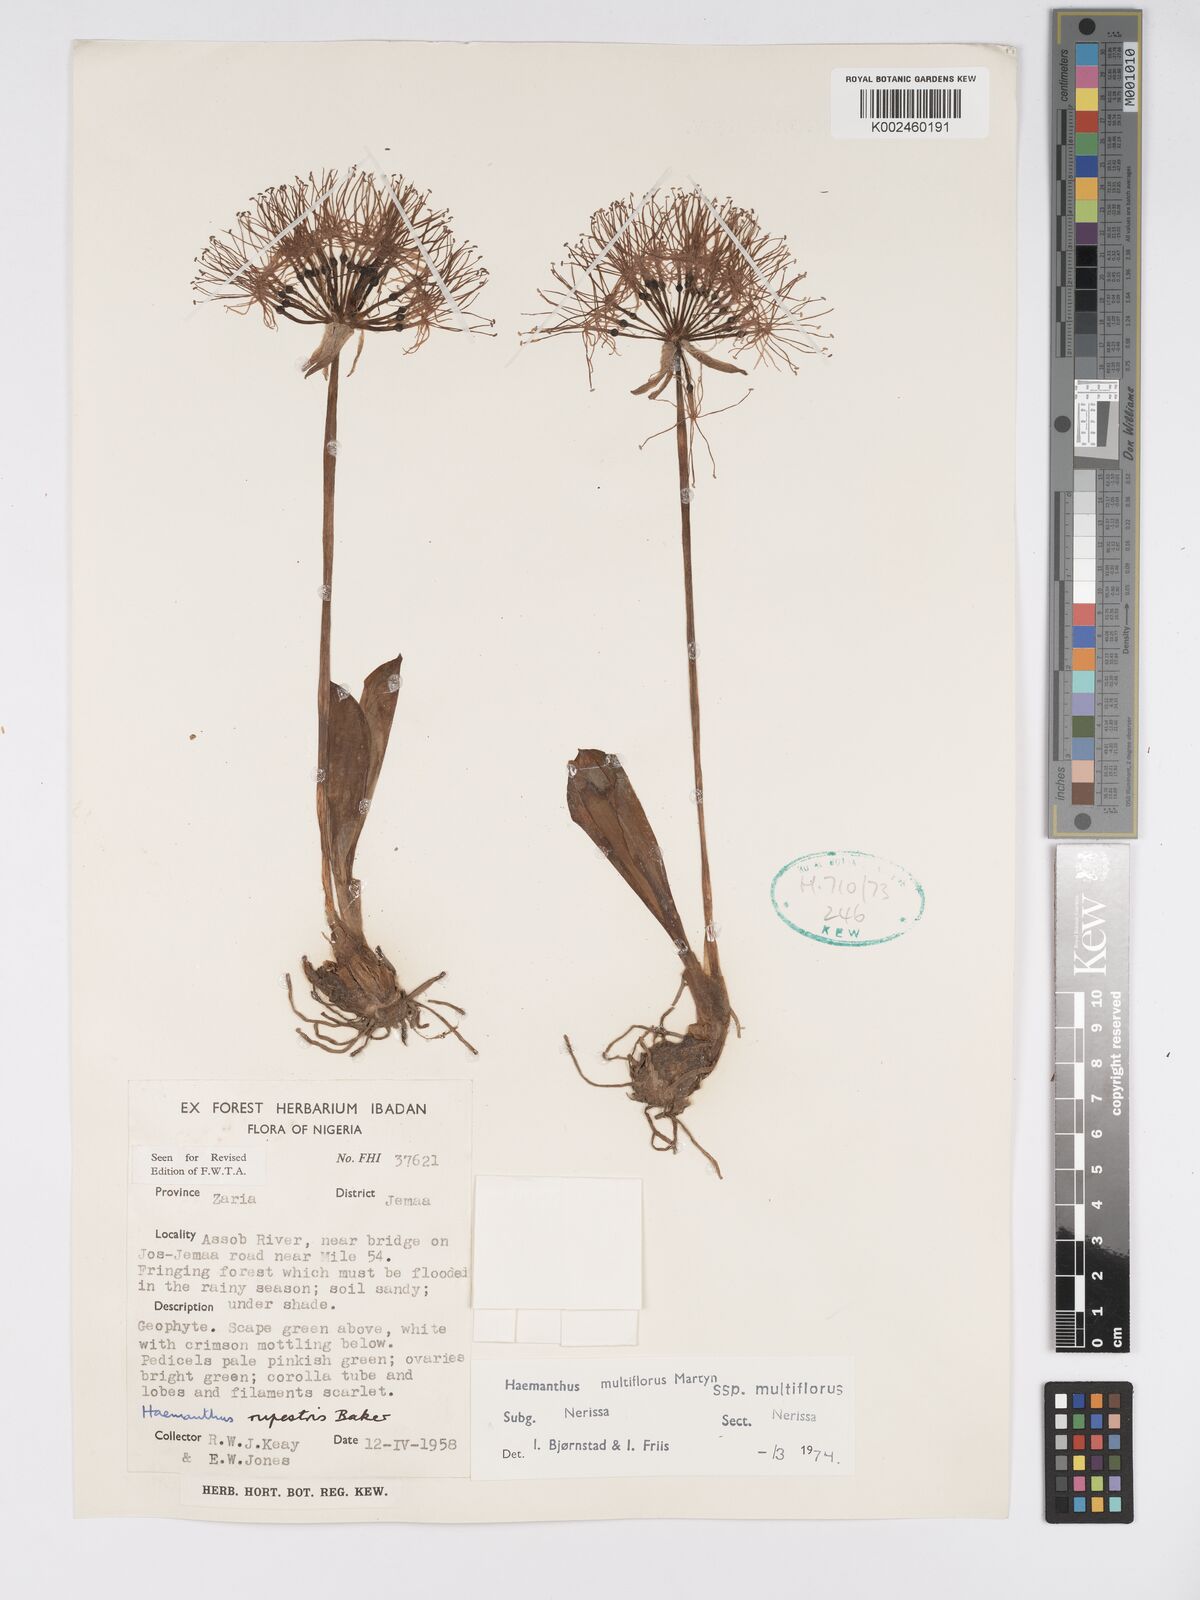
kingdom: Plantae
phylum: Tracheophyta
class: Liliopsida
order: Asparagales
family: Amaryllidaceae
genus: Scadoxus
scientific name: Scadoxus multiflorus
